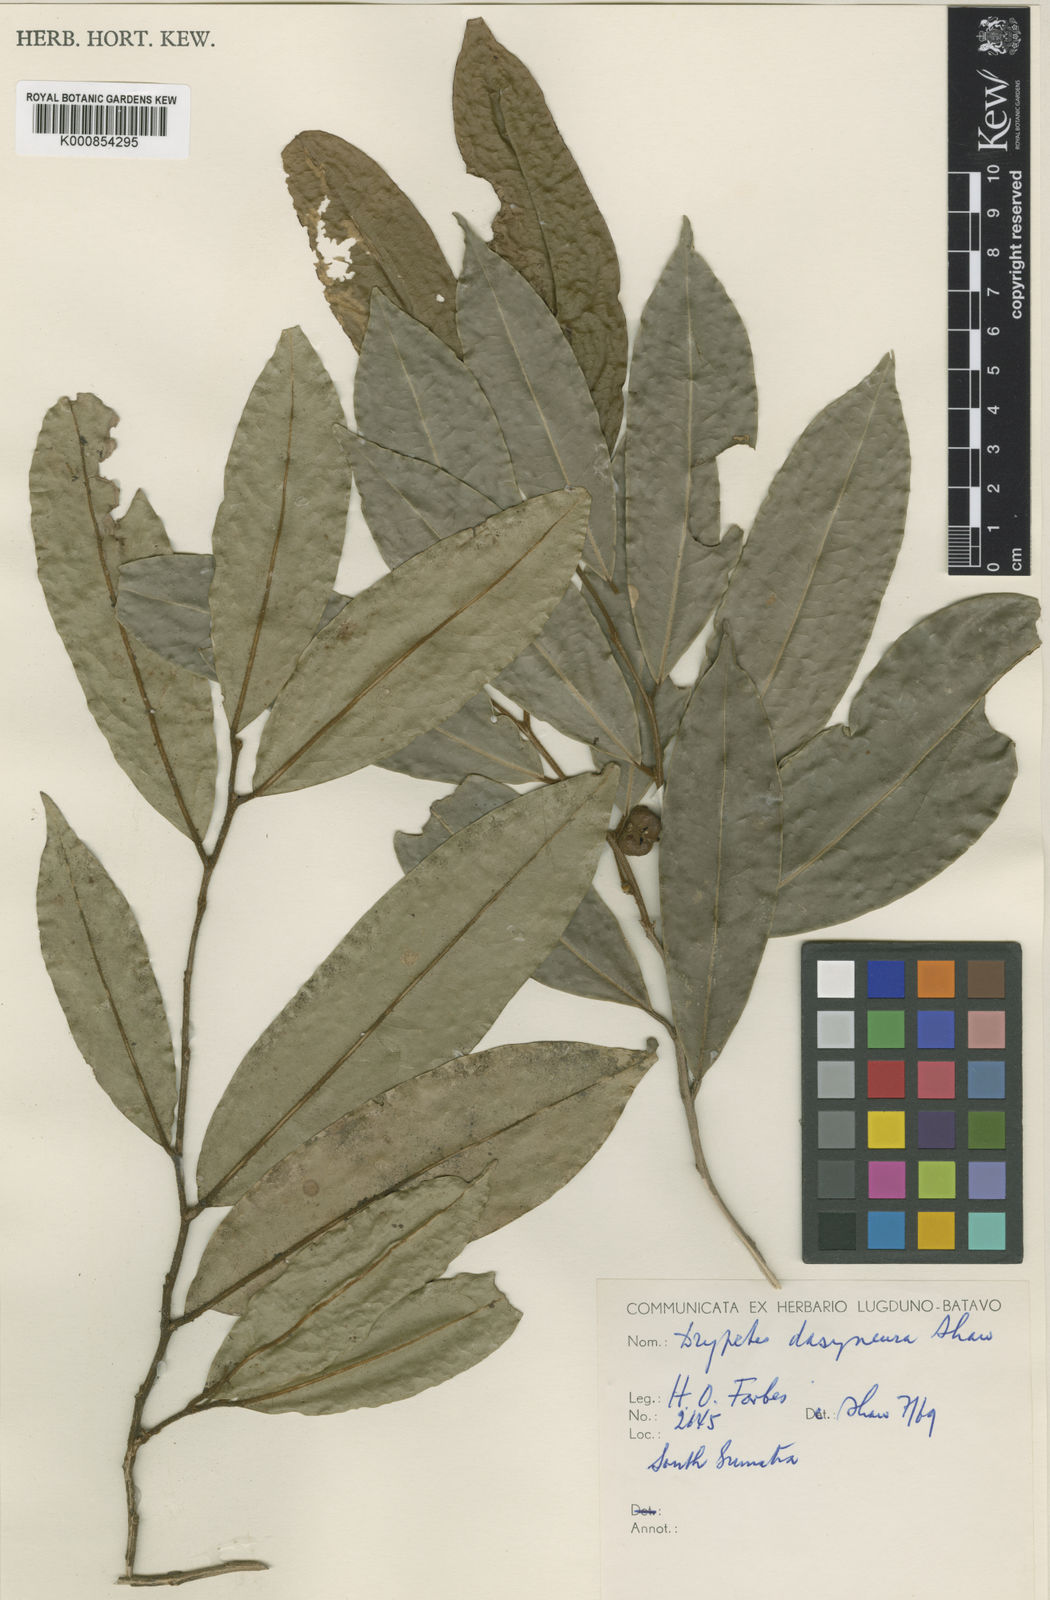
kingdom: Plantae
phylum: Tracheophyta
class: Magnoliopsida
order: Malpighiales
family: Putranjivaceae
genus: Drypetes
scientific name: Drypetes dasyneura
